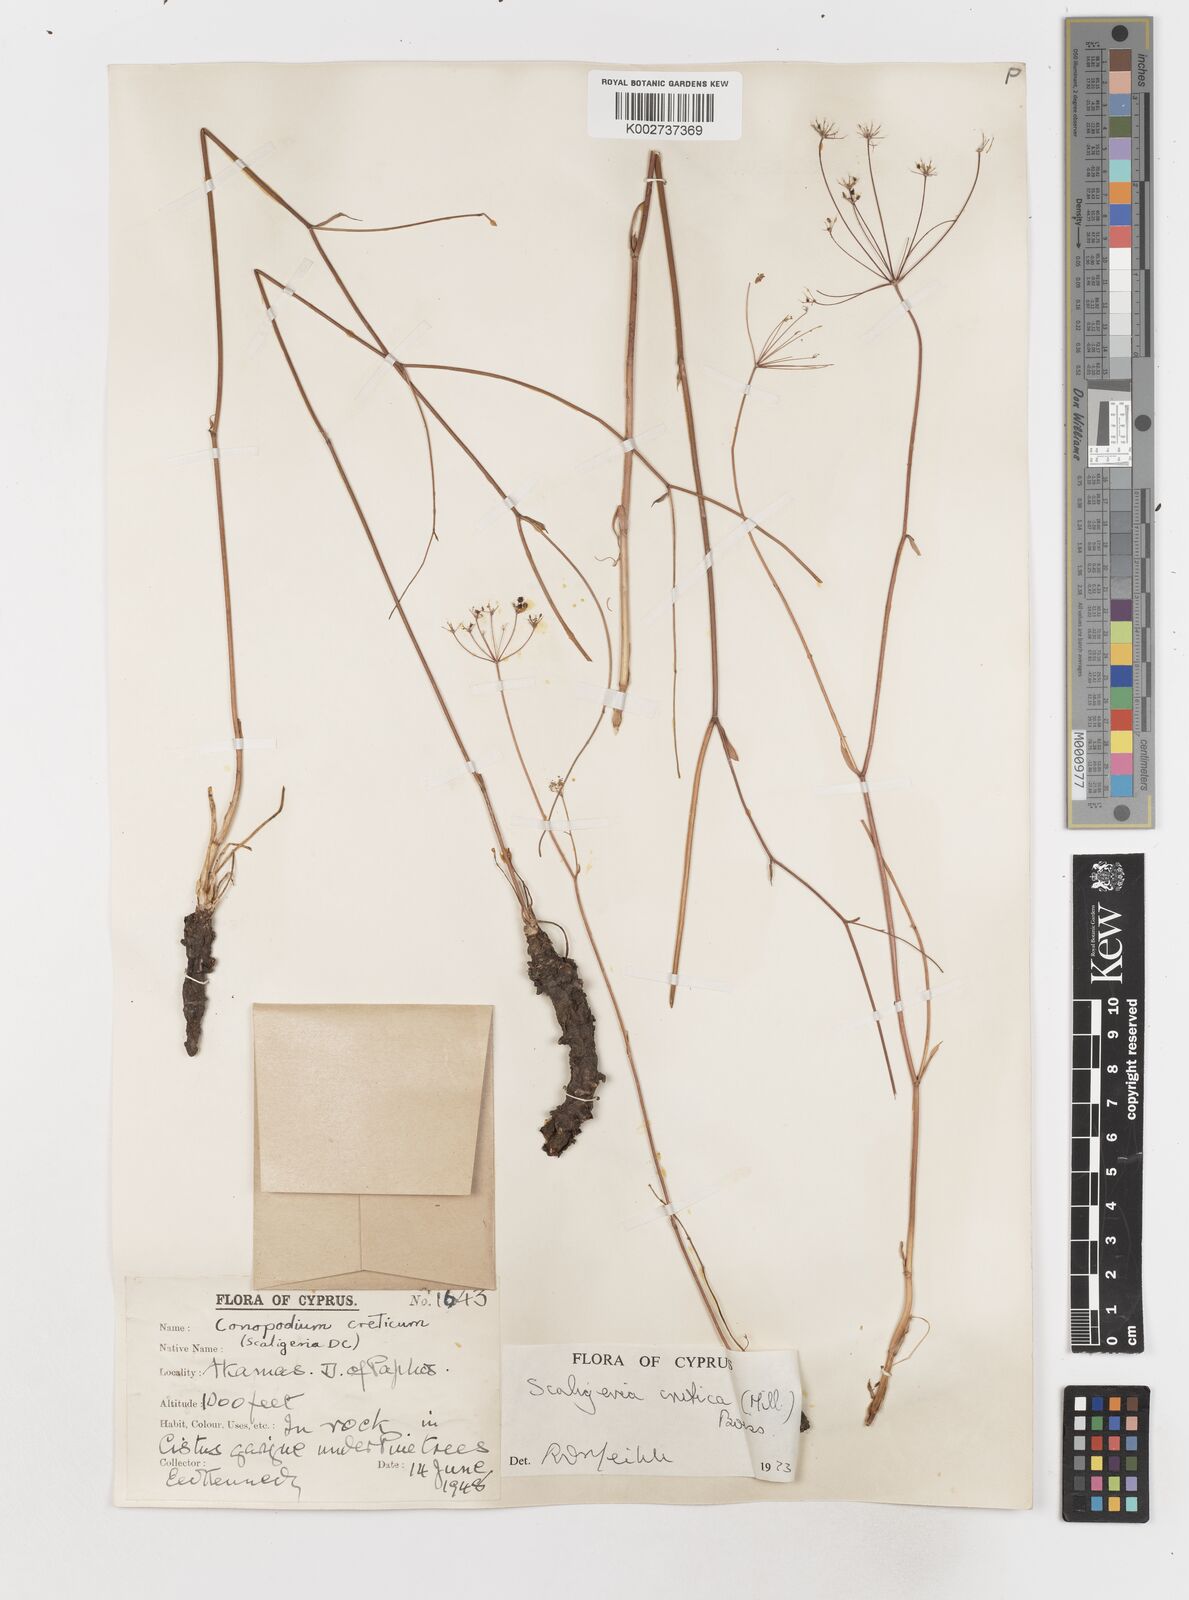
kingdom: Plantae
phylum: Tracheophyta
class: Magnoliopsida
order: Apiales
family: Apiaceae
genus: Scaligeria
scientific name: Scaligeria
